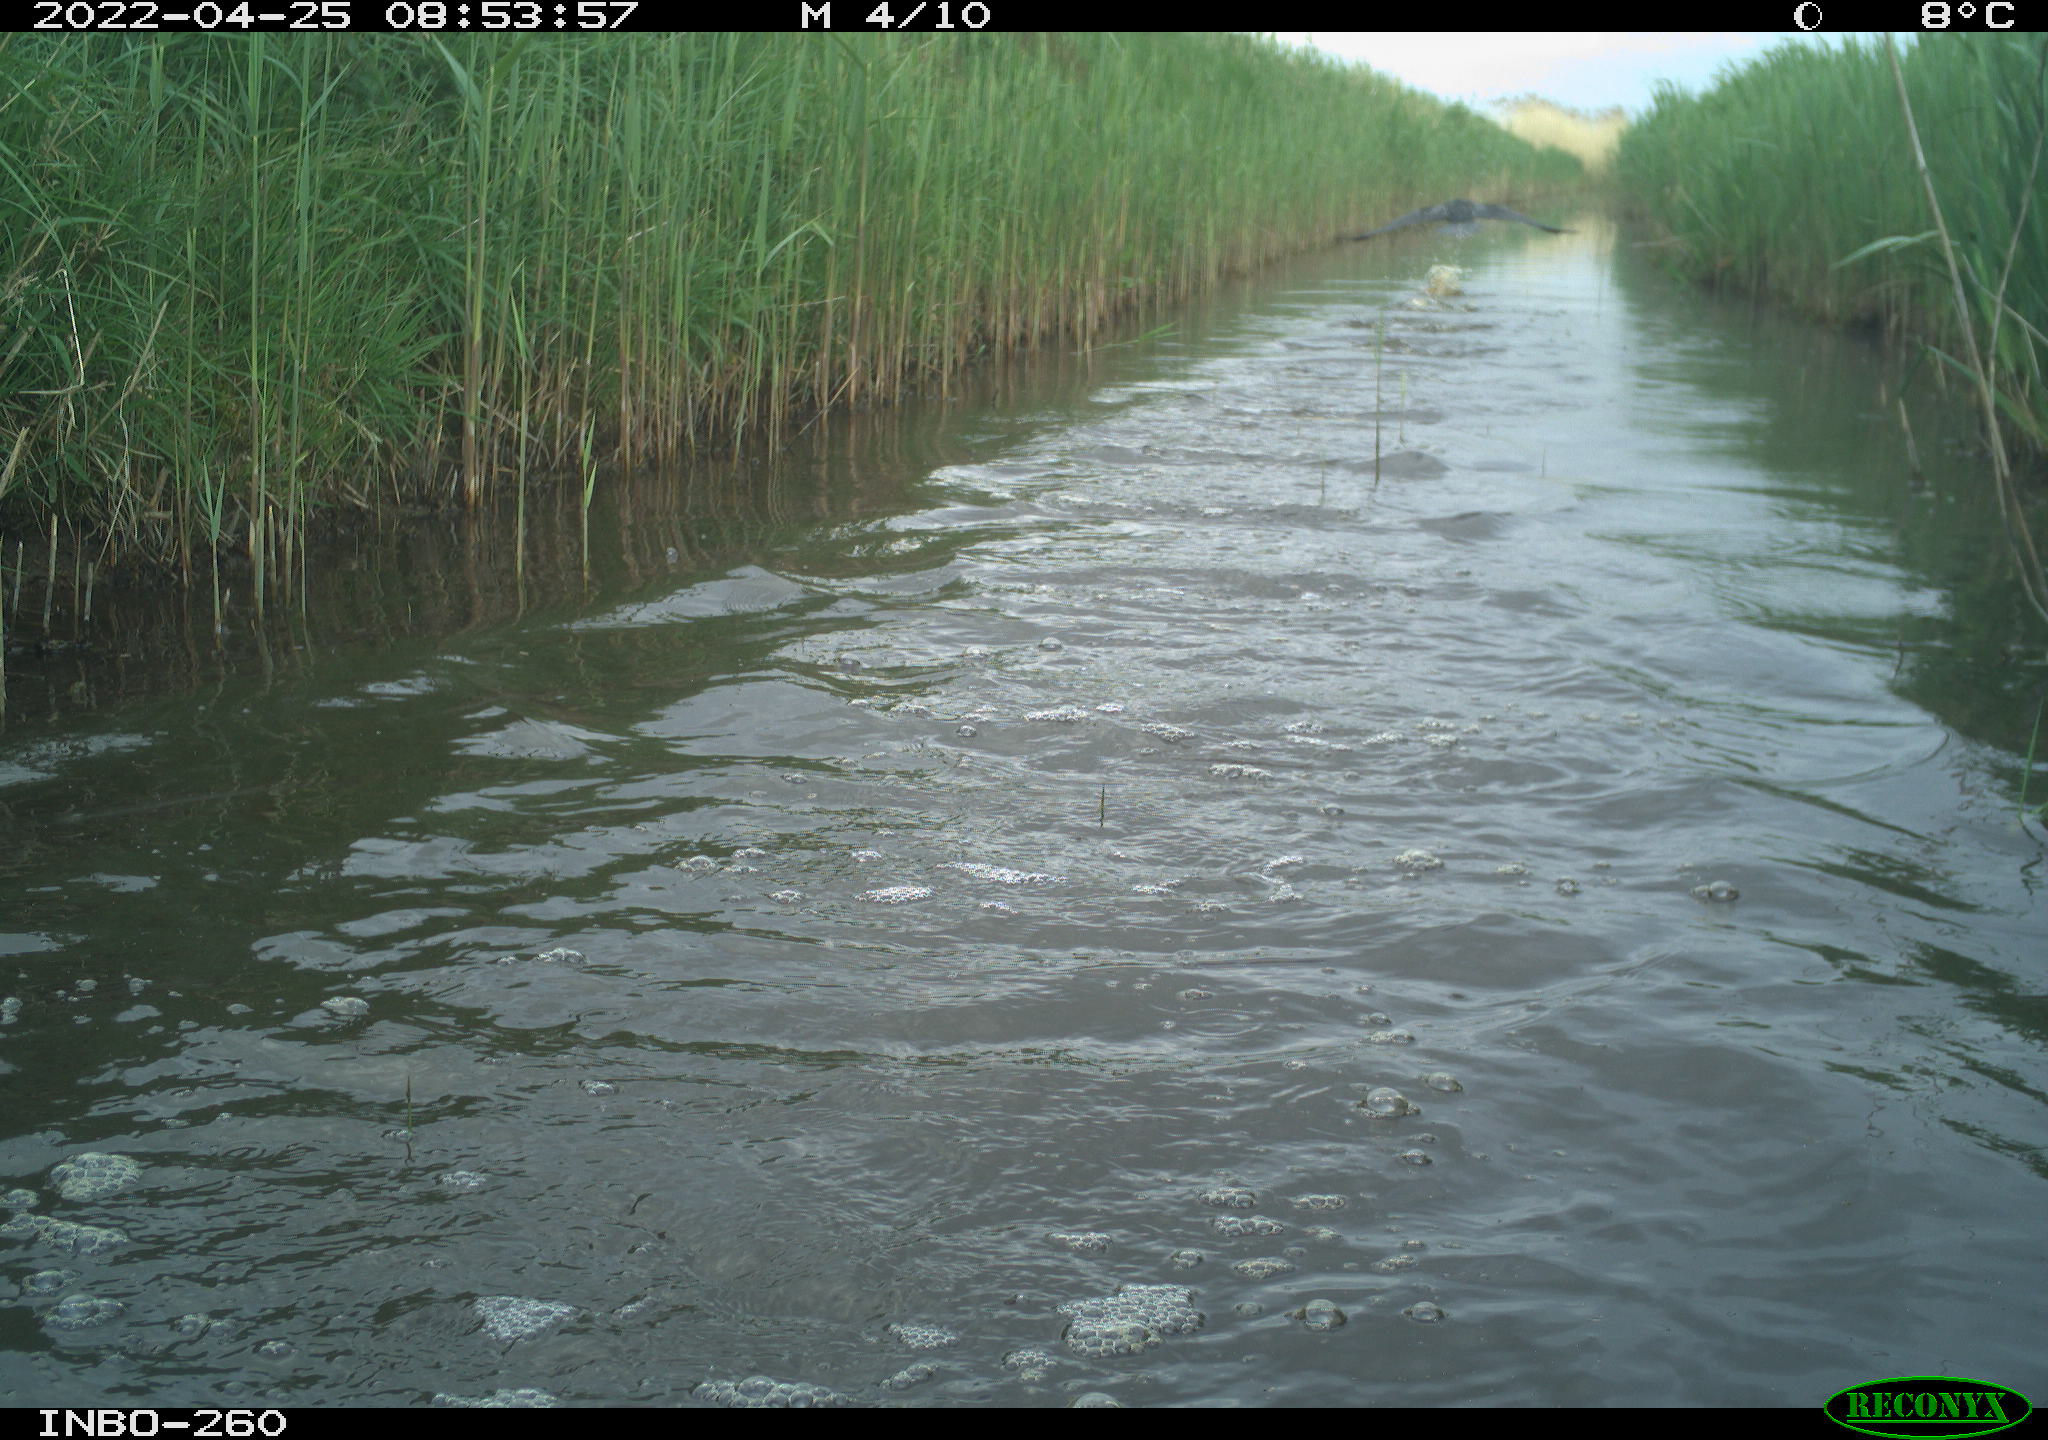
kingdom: Animalia
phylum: Chordata
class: Aves
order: Suliformes
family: Phalacrocoracidae
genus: Phalacrocorax
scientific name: Phalacrocorax carbo
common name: Great cormorant
